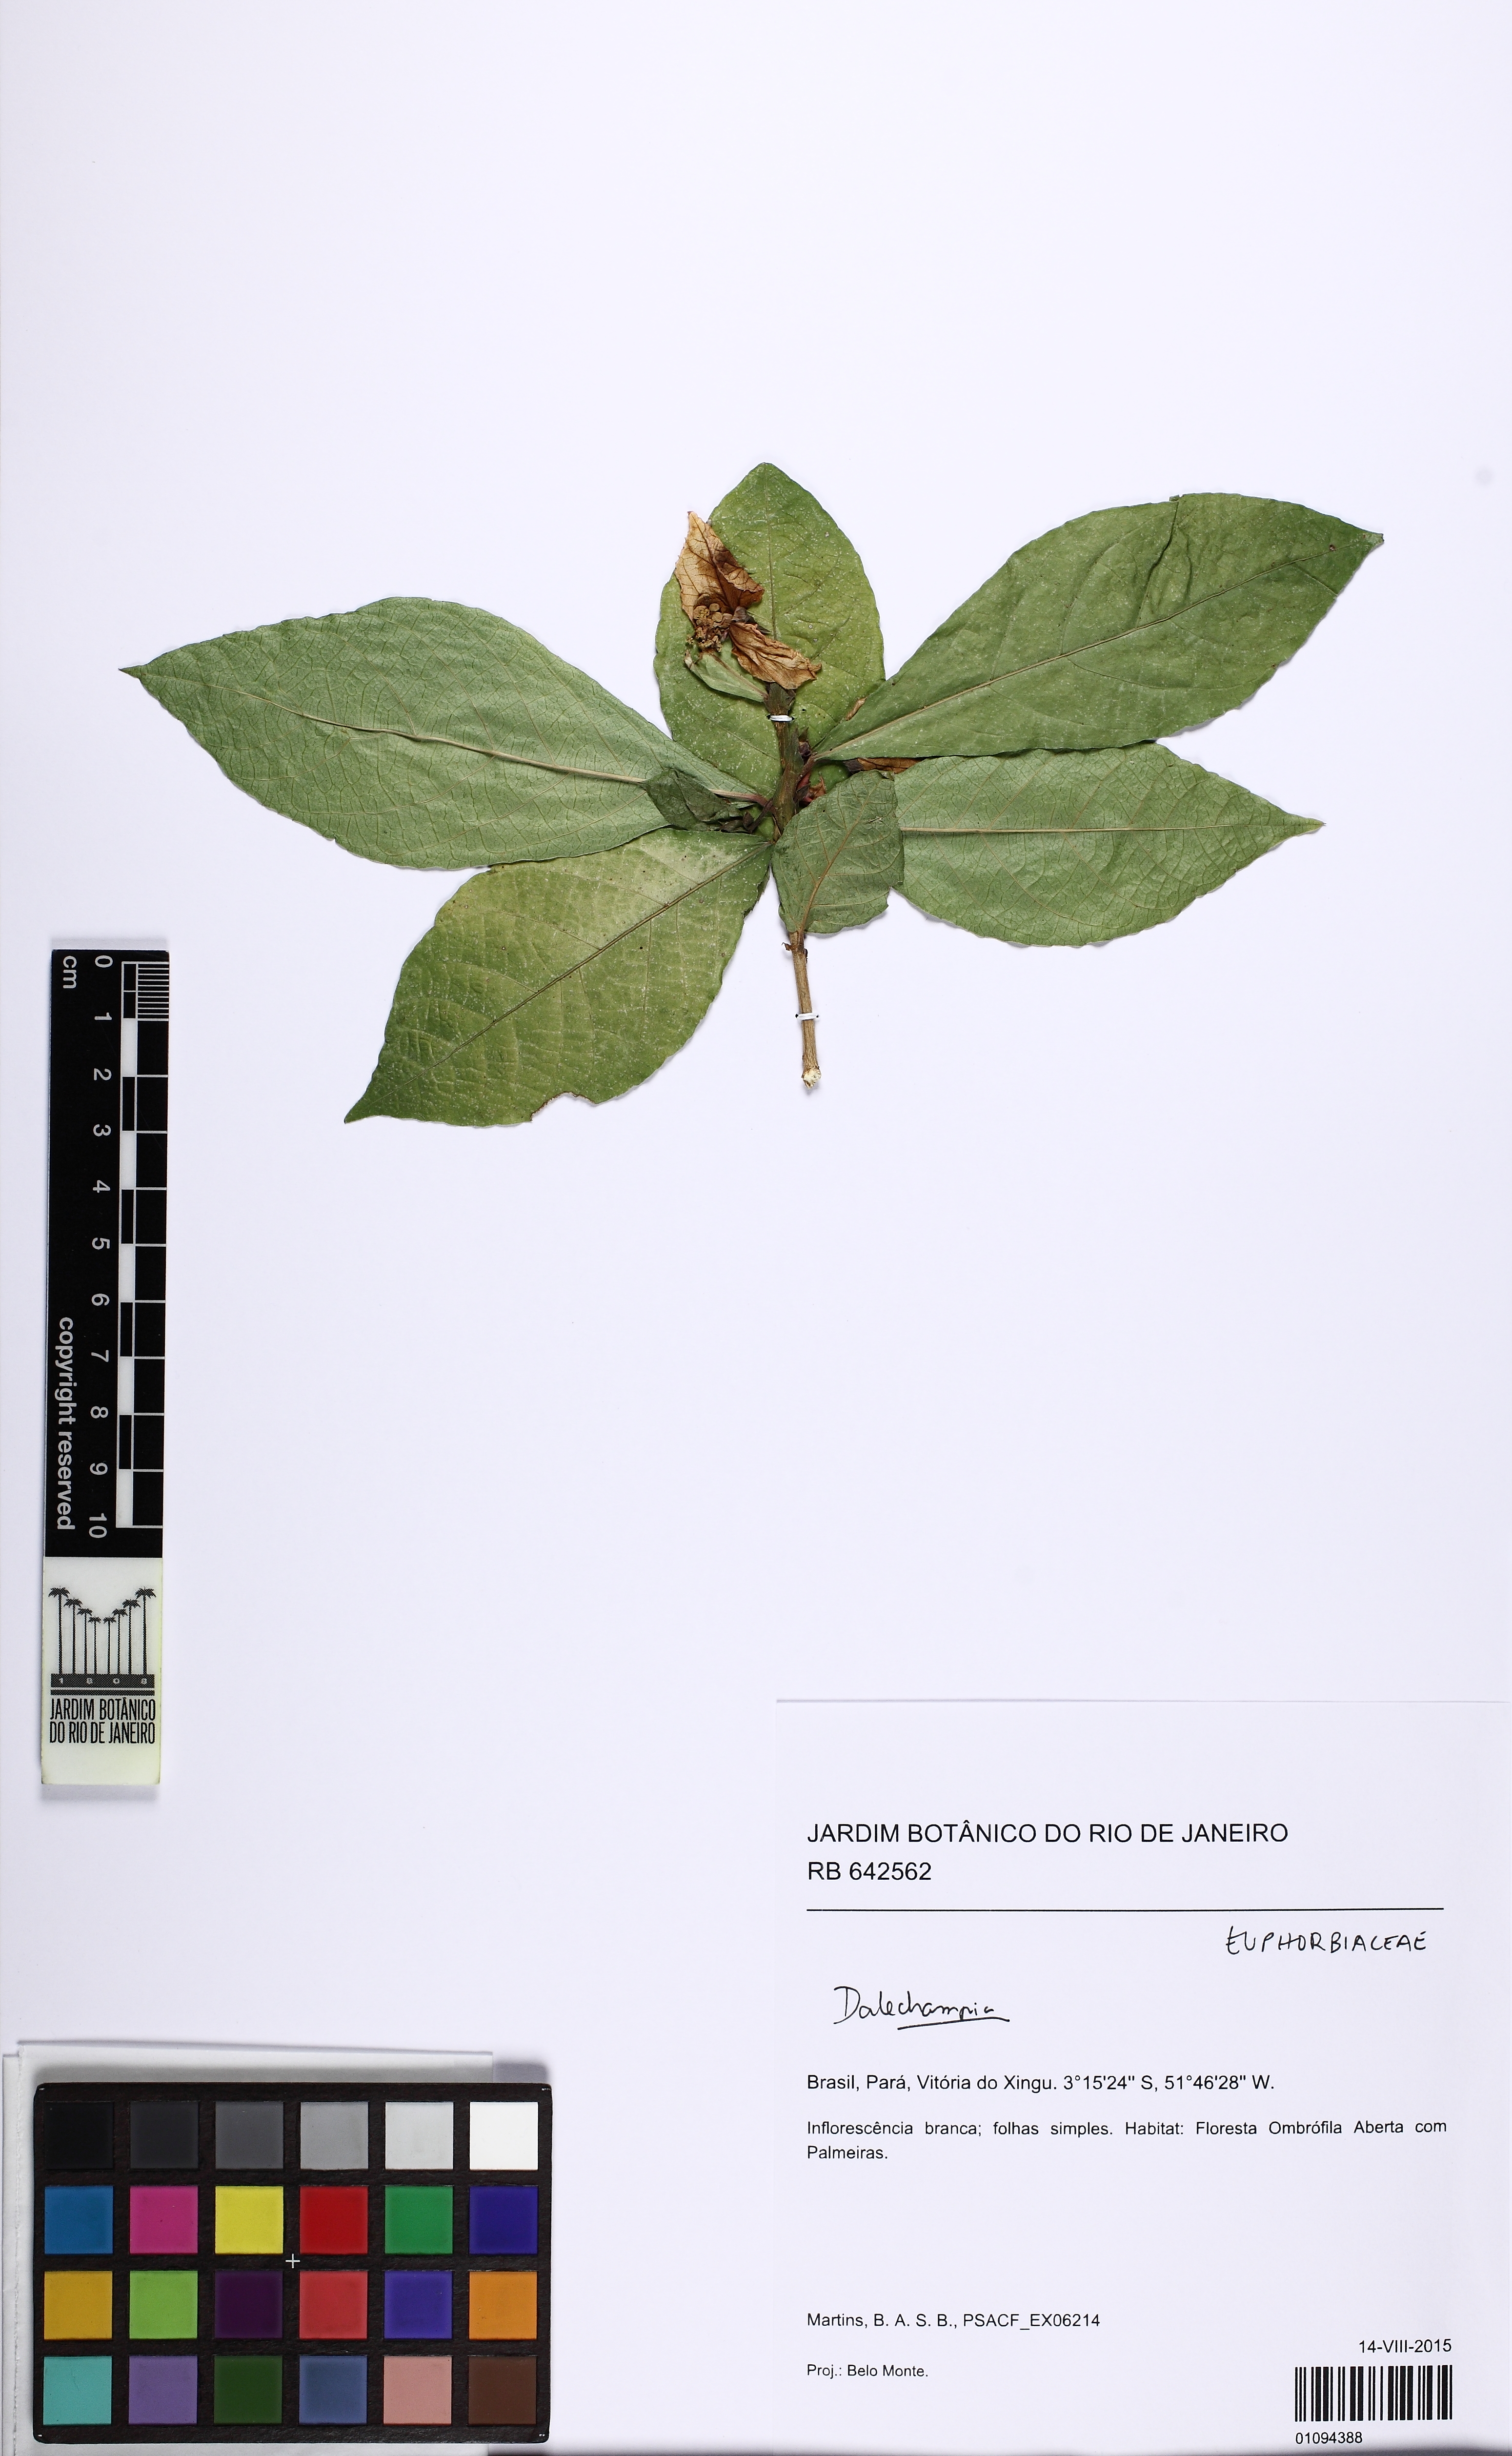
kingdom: Plantae
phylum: Tracheophyta
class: Magnoliopsida
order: Malpighiales
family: Euphorbiaceae
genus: Dalechampia
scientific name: Dalechampia magnoliifolia
